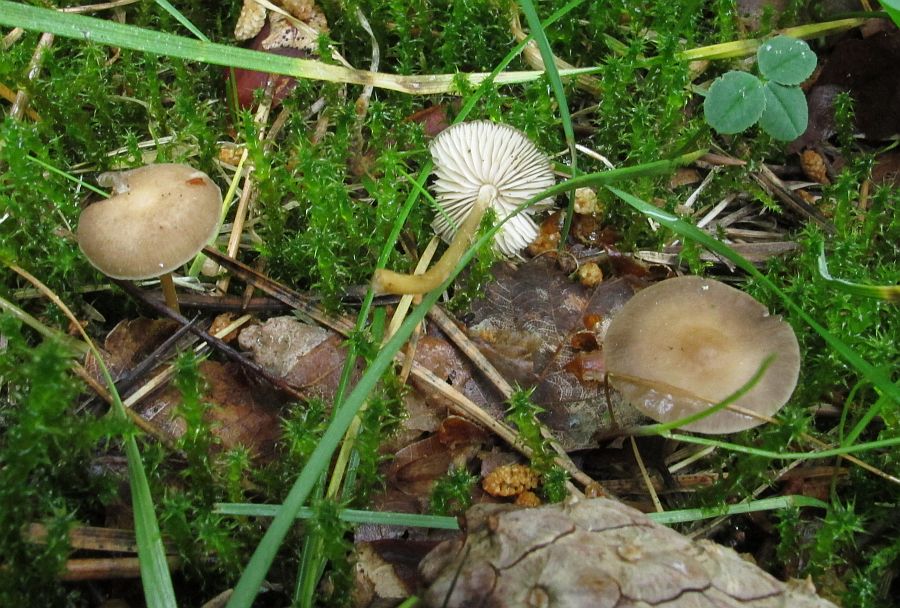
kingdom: Fungi
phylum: Basidiomycota
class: Agaricomycetes
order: Agaricales
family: Physalacriaceae
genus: Strobilurus
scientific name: Strobilurus tenacellus
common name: sommer-koglehat
